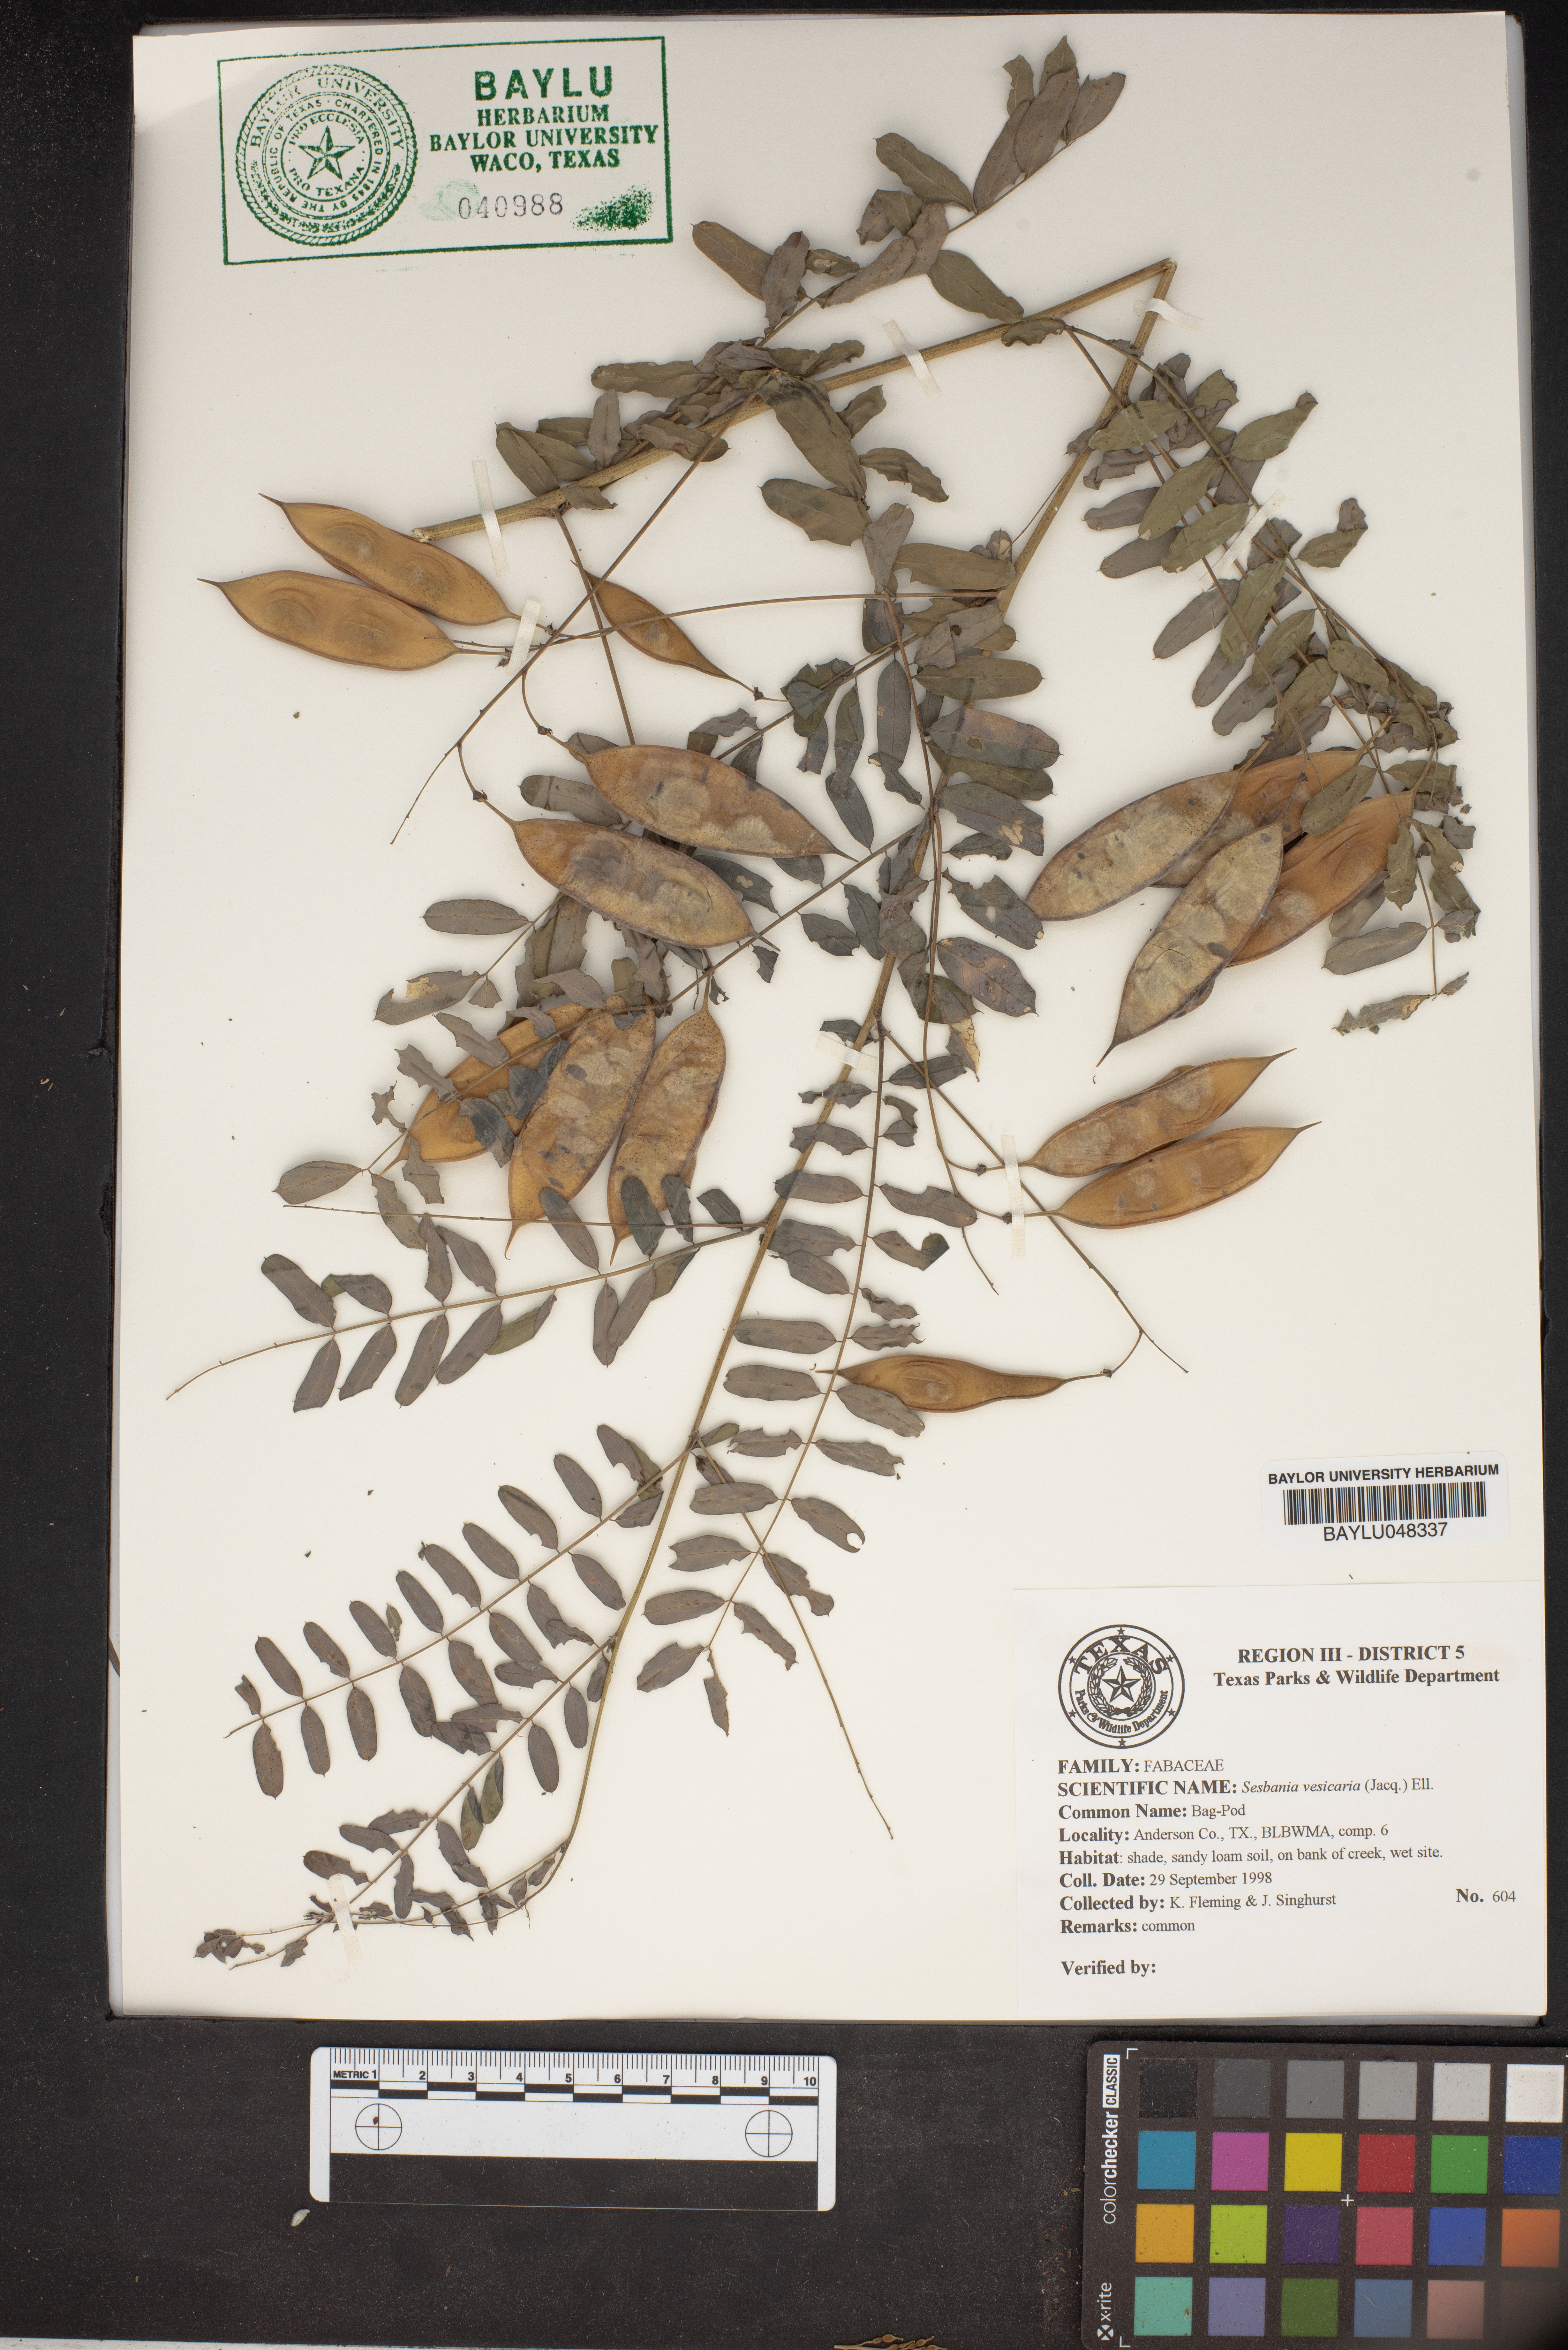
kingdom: Plantae
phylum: Tracheophyta
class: Magnoliopsida
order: Fabales
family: Fabaceae
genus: Sesbania
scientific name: Sesbania vesicaria
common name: Bagpod
